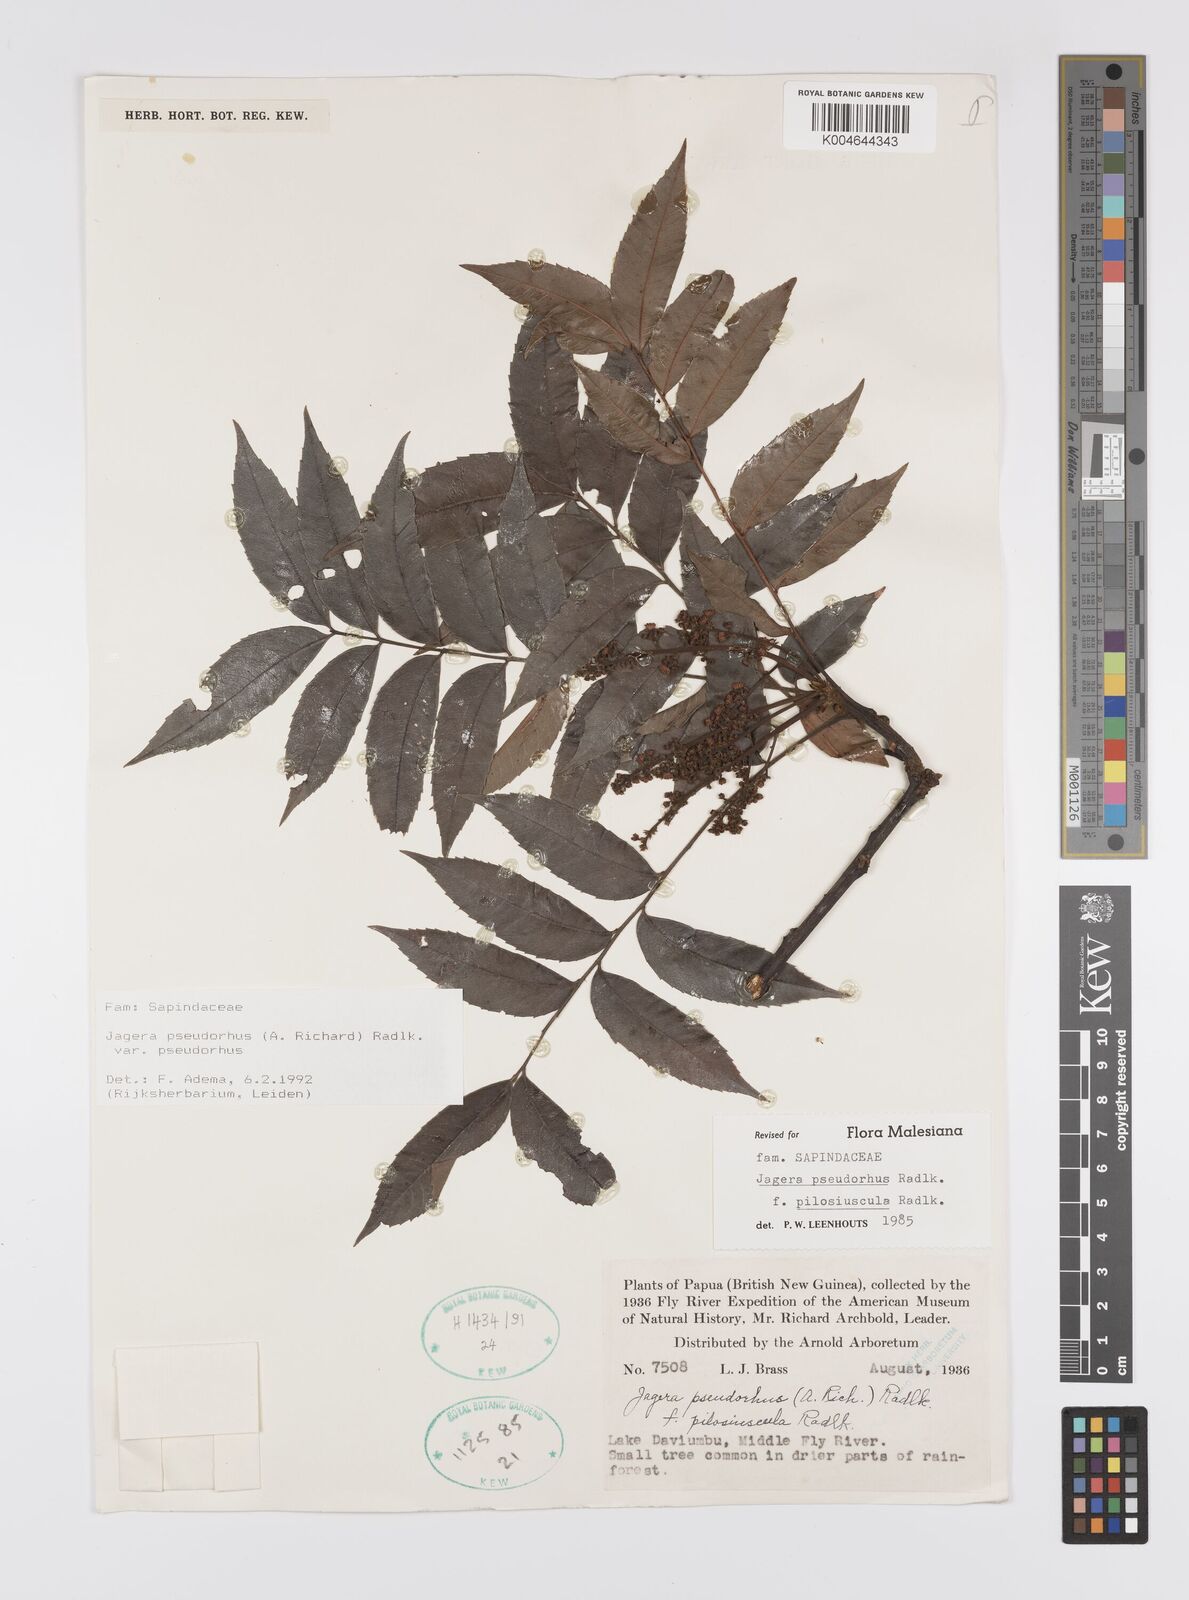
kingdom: Plantae
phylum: Tracheophyta
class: Magnoliopsida
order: Sapindales
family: Sapindaceae
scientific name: Sapindaceae
